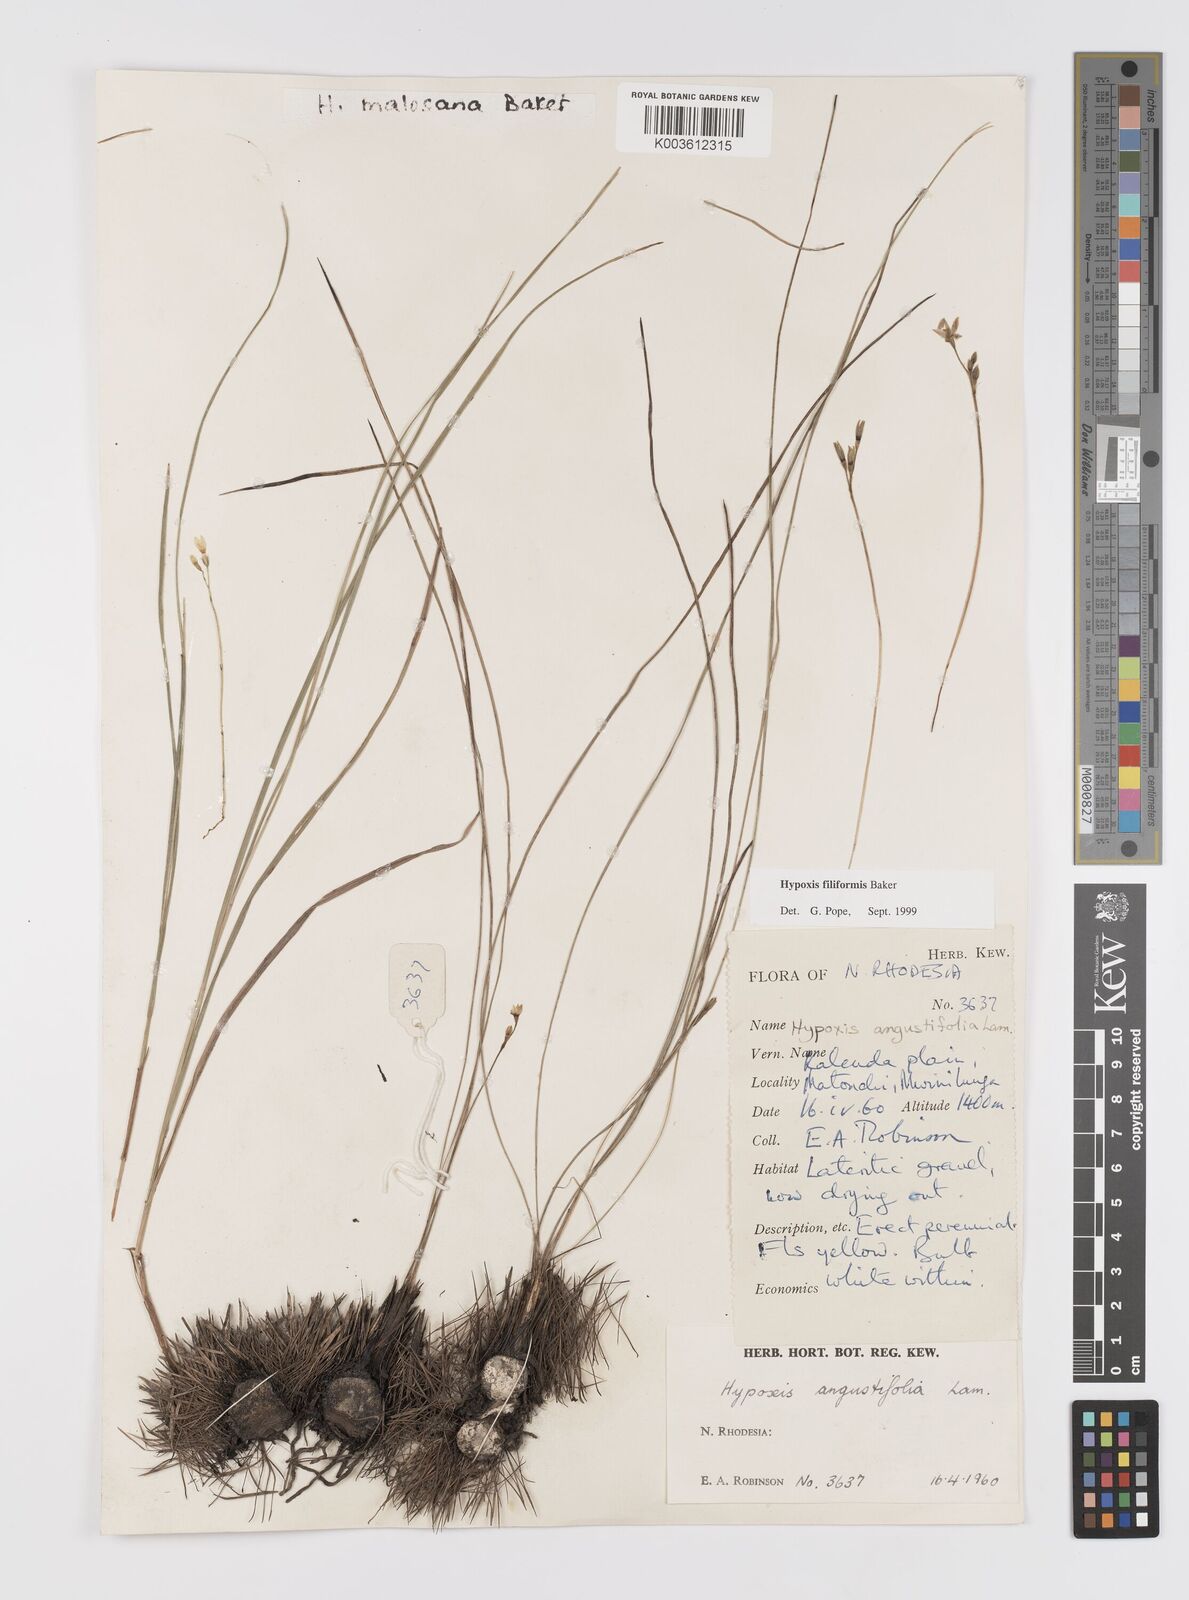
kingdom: Plantae
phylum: Tracheophyta
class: Liliopsida
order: Asparagales
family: Hypoxidaceae
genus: Hypoxis
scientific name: Hypoxis filiformis
